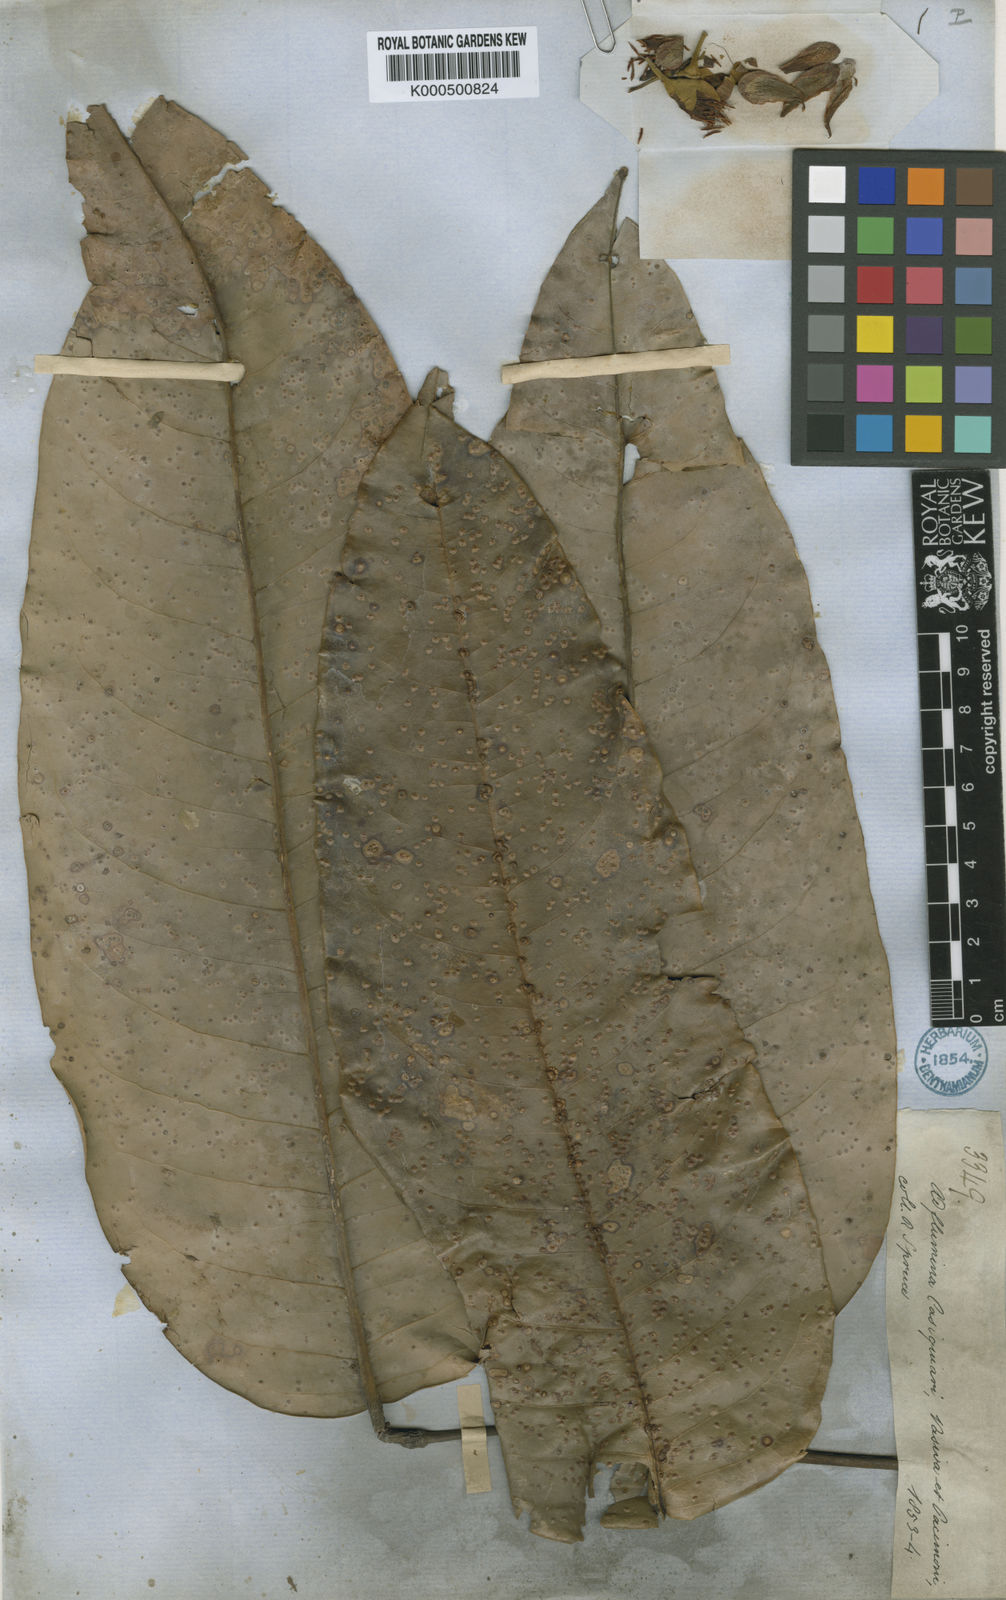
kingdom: Plantae
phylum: Tracheophyta
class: Magnoliopsida
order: Fabales
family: Fabaceae
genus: Aldina
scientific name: Aldina latifolia
